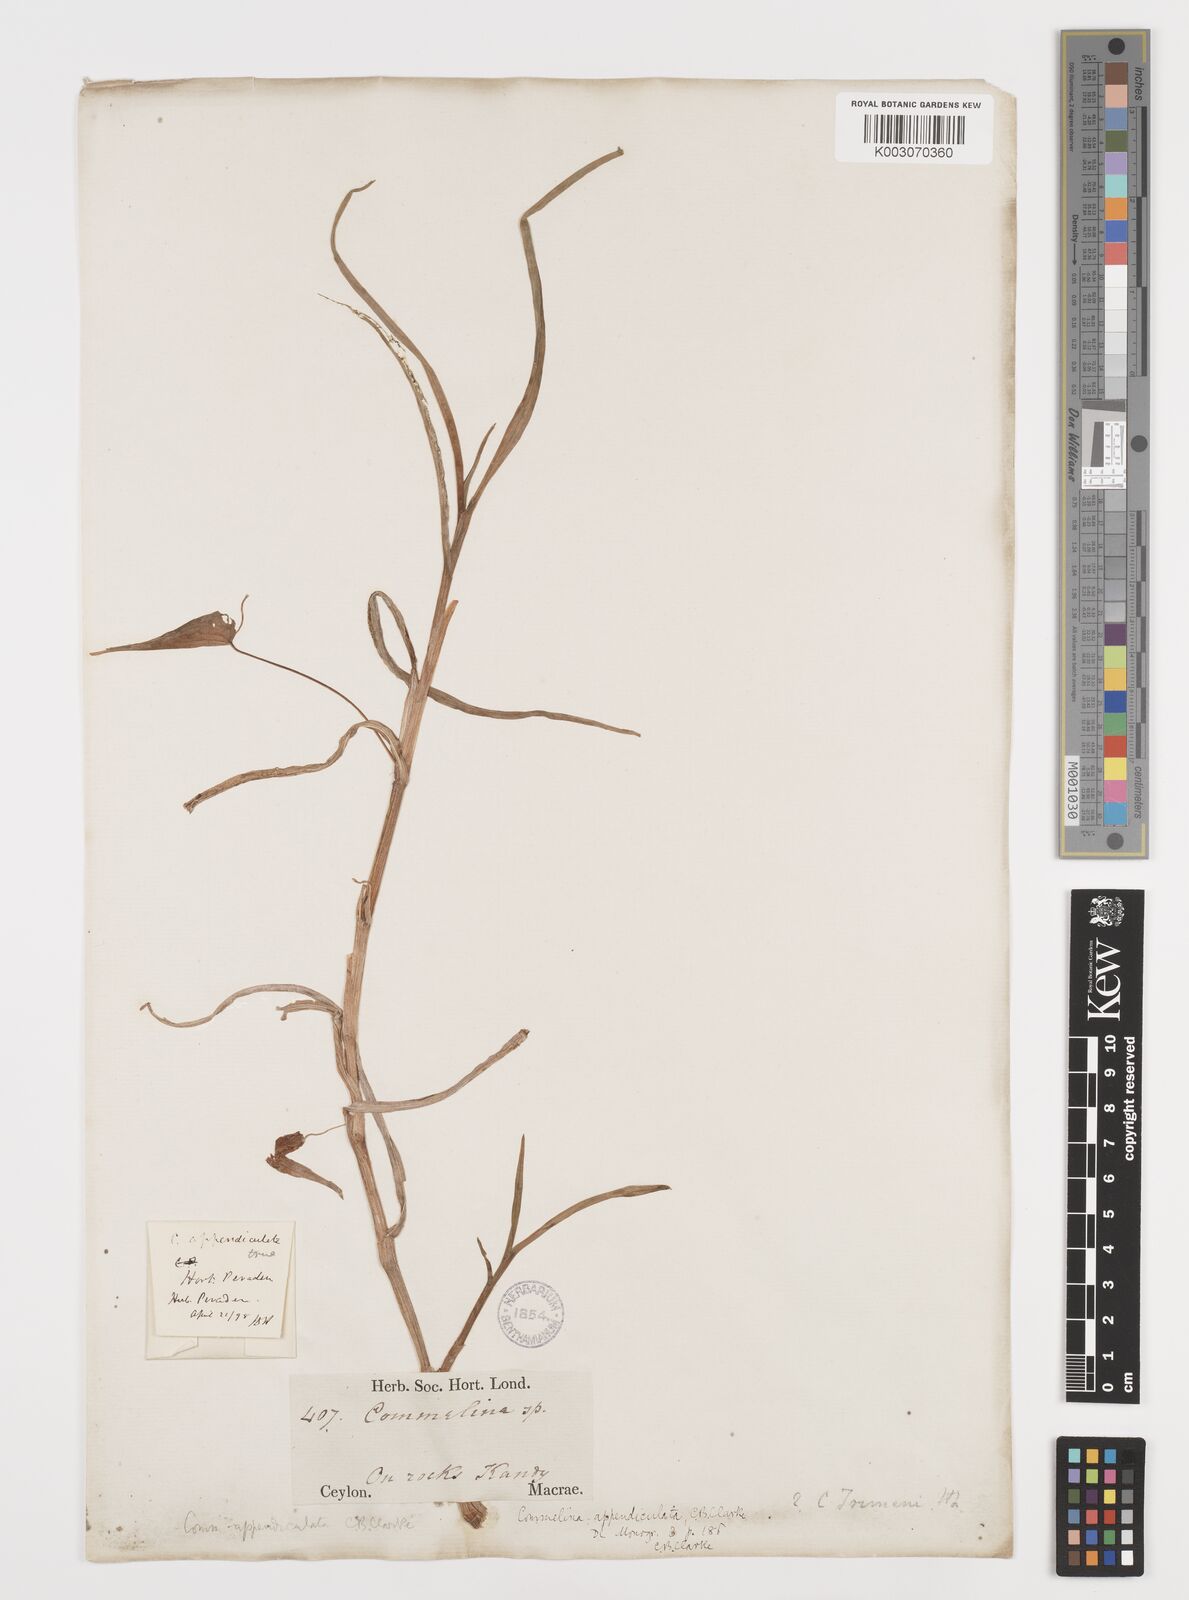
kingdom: Plantae
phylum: Tracheophyta
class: Liliopsida
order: Commelinales
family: Commelinaceae
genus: Commelina
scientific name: Commelina appendiculata
